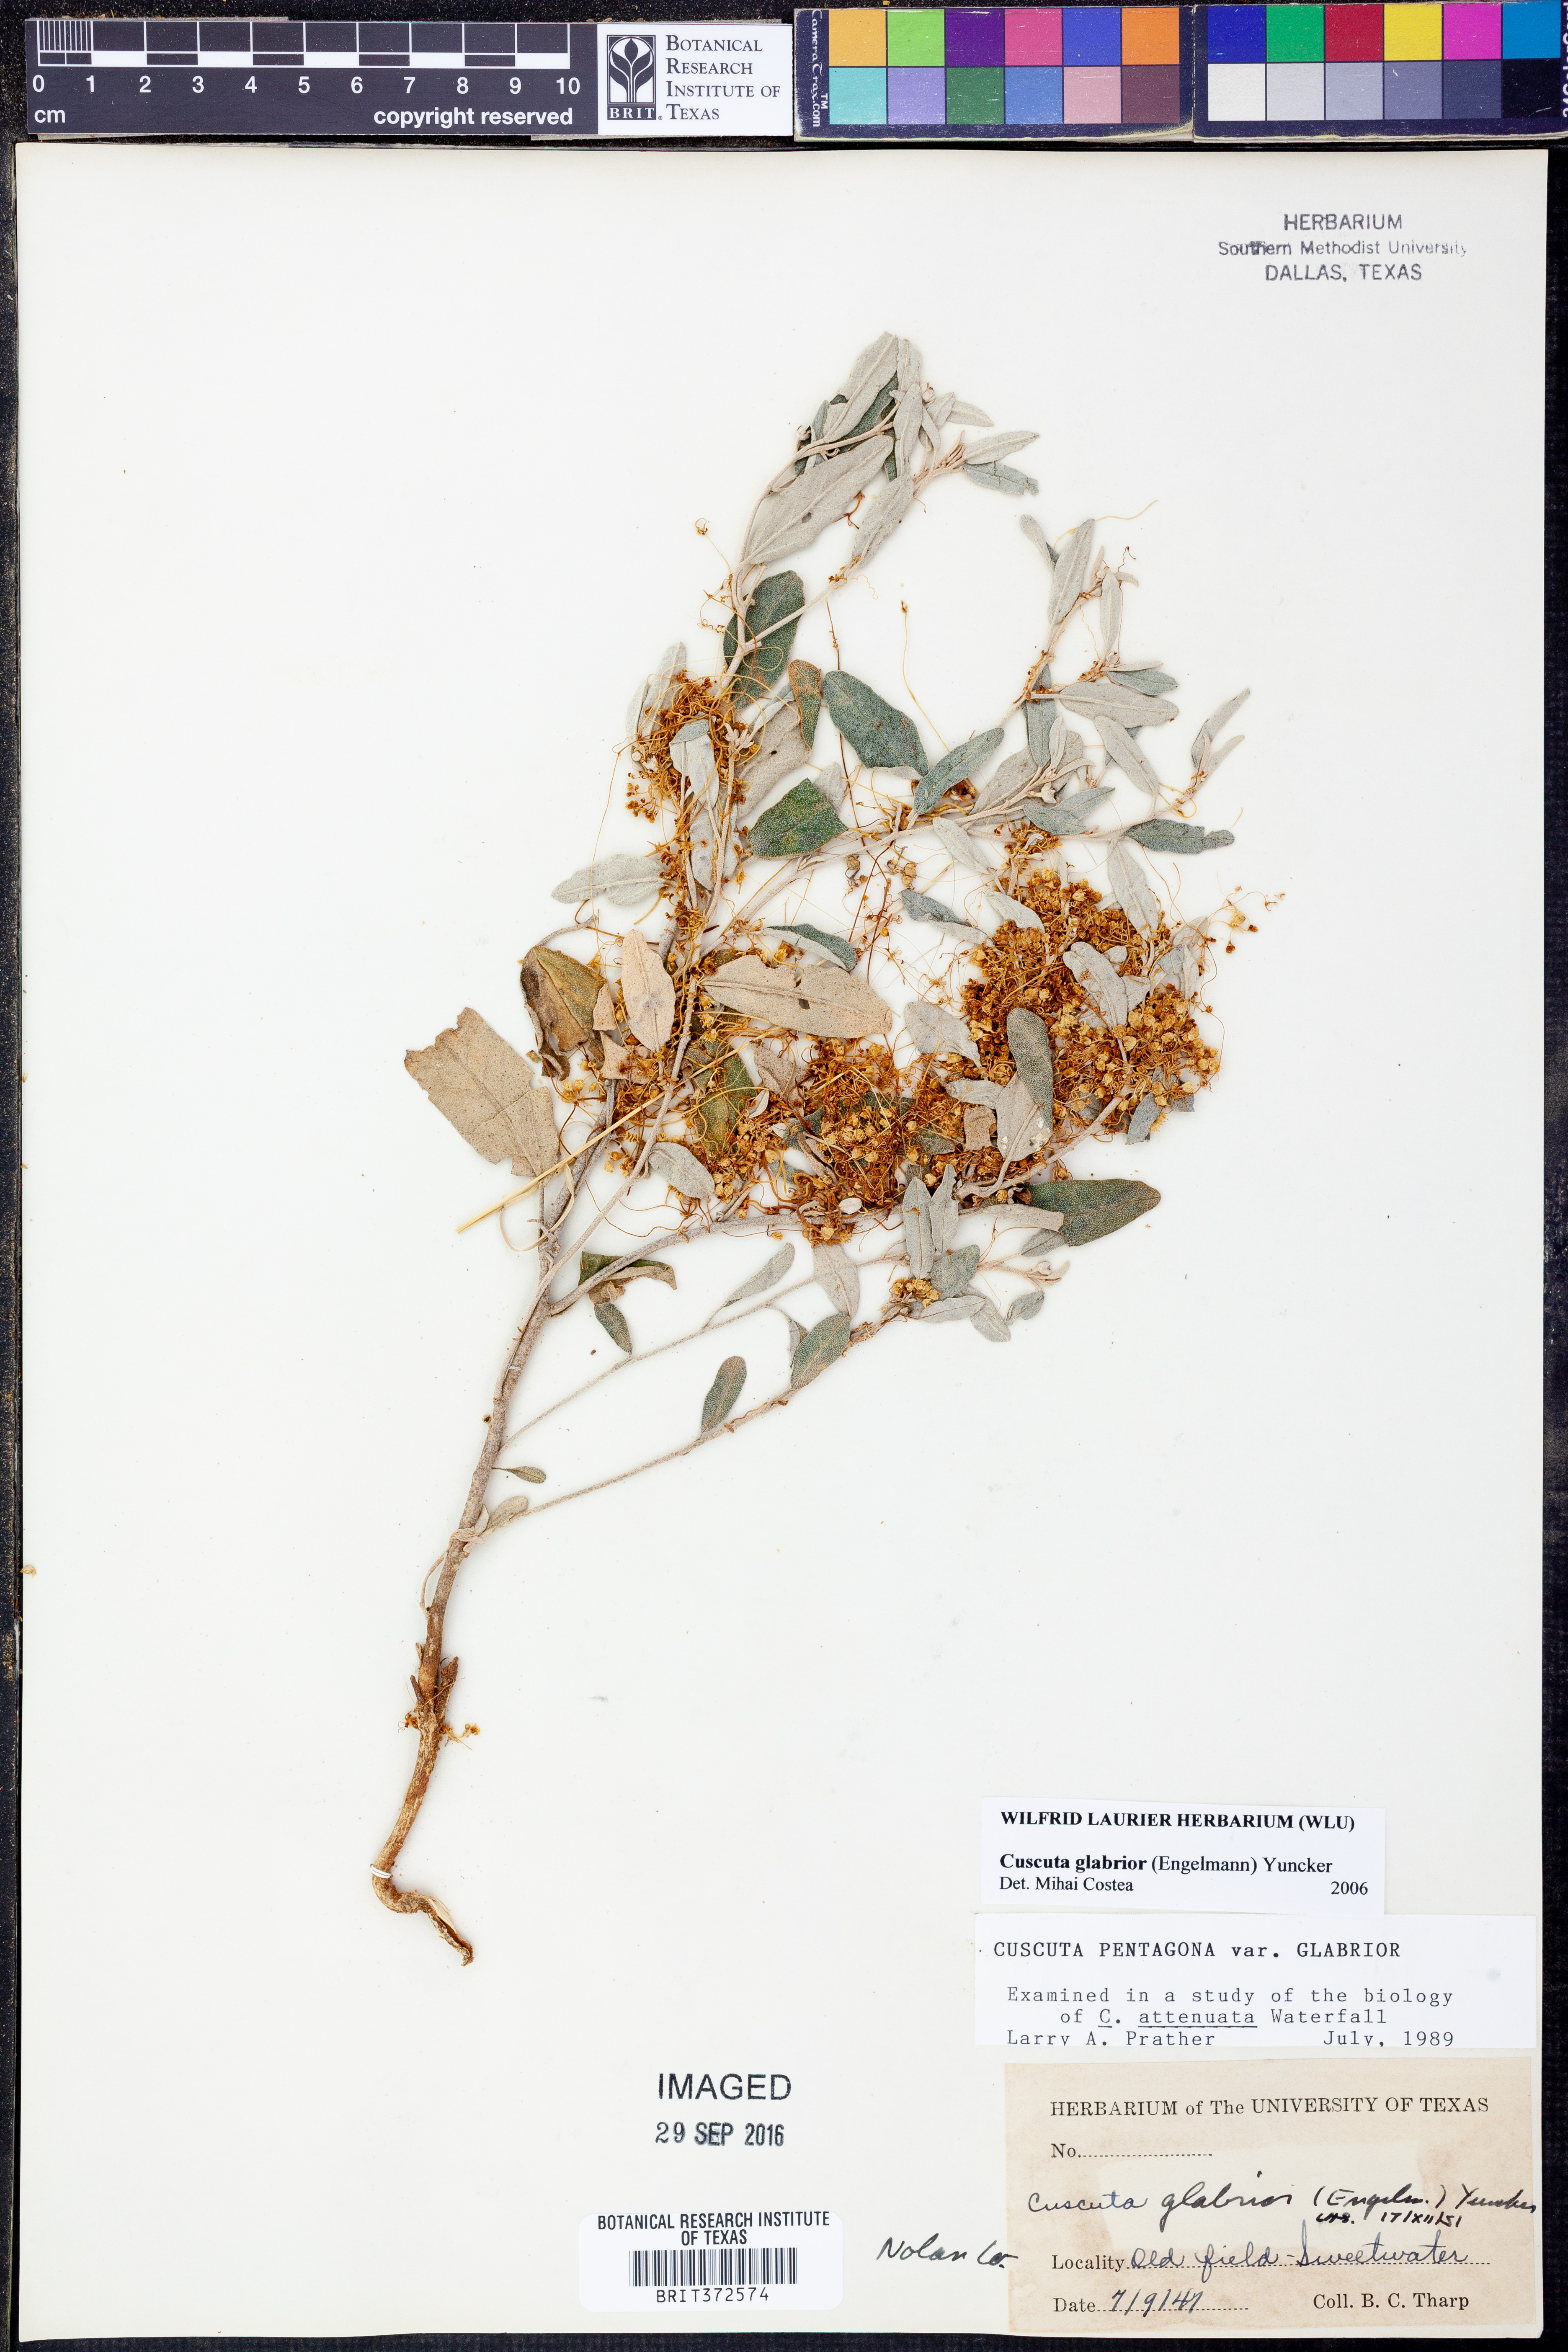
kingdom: Plantae
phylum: Tracheophyta
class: Magnoliopsida
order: Solanales
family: Convolvulaceae
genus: Cuscuta
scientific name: Cuscuta glabrior
